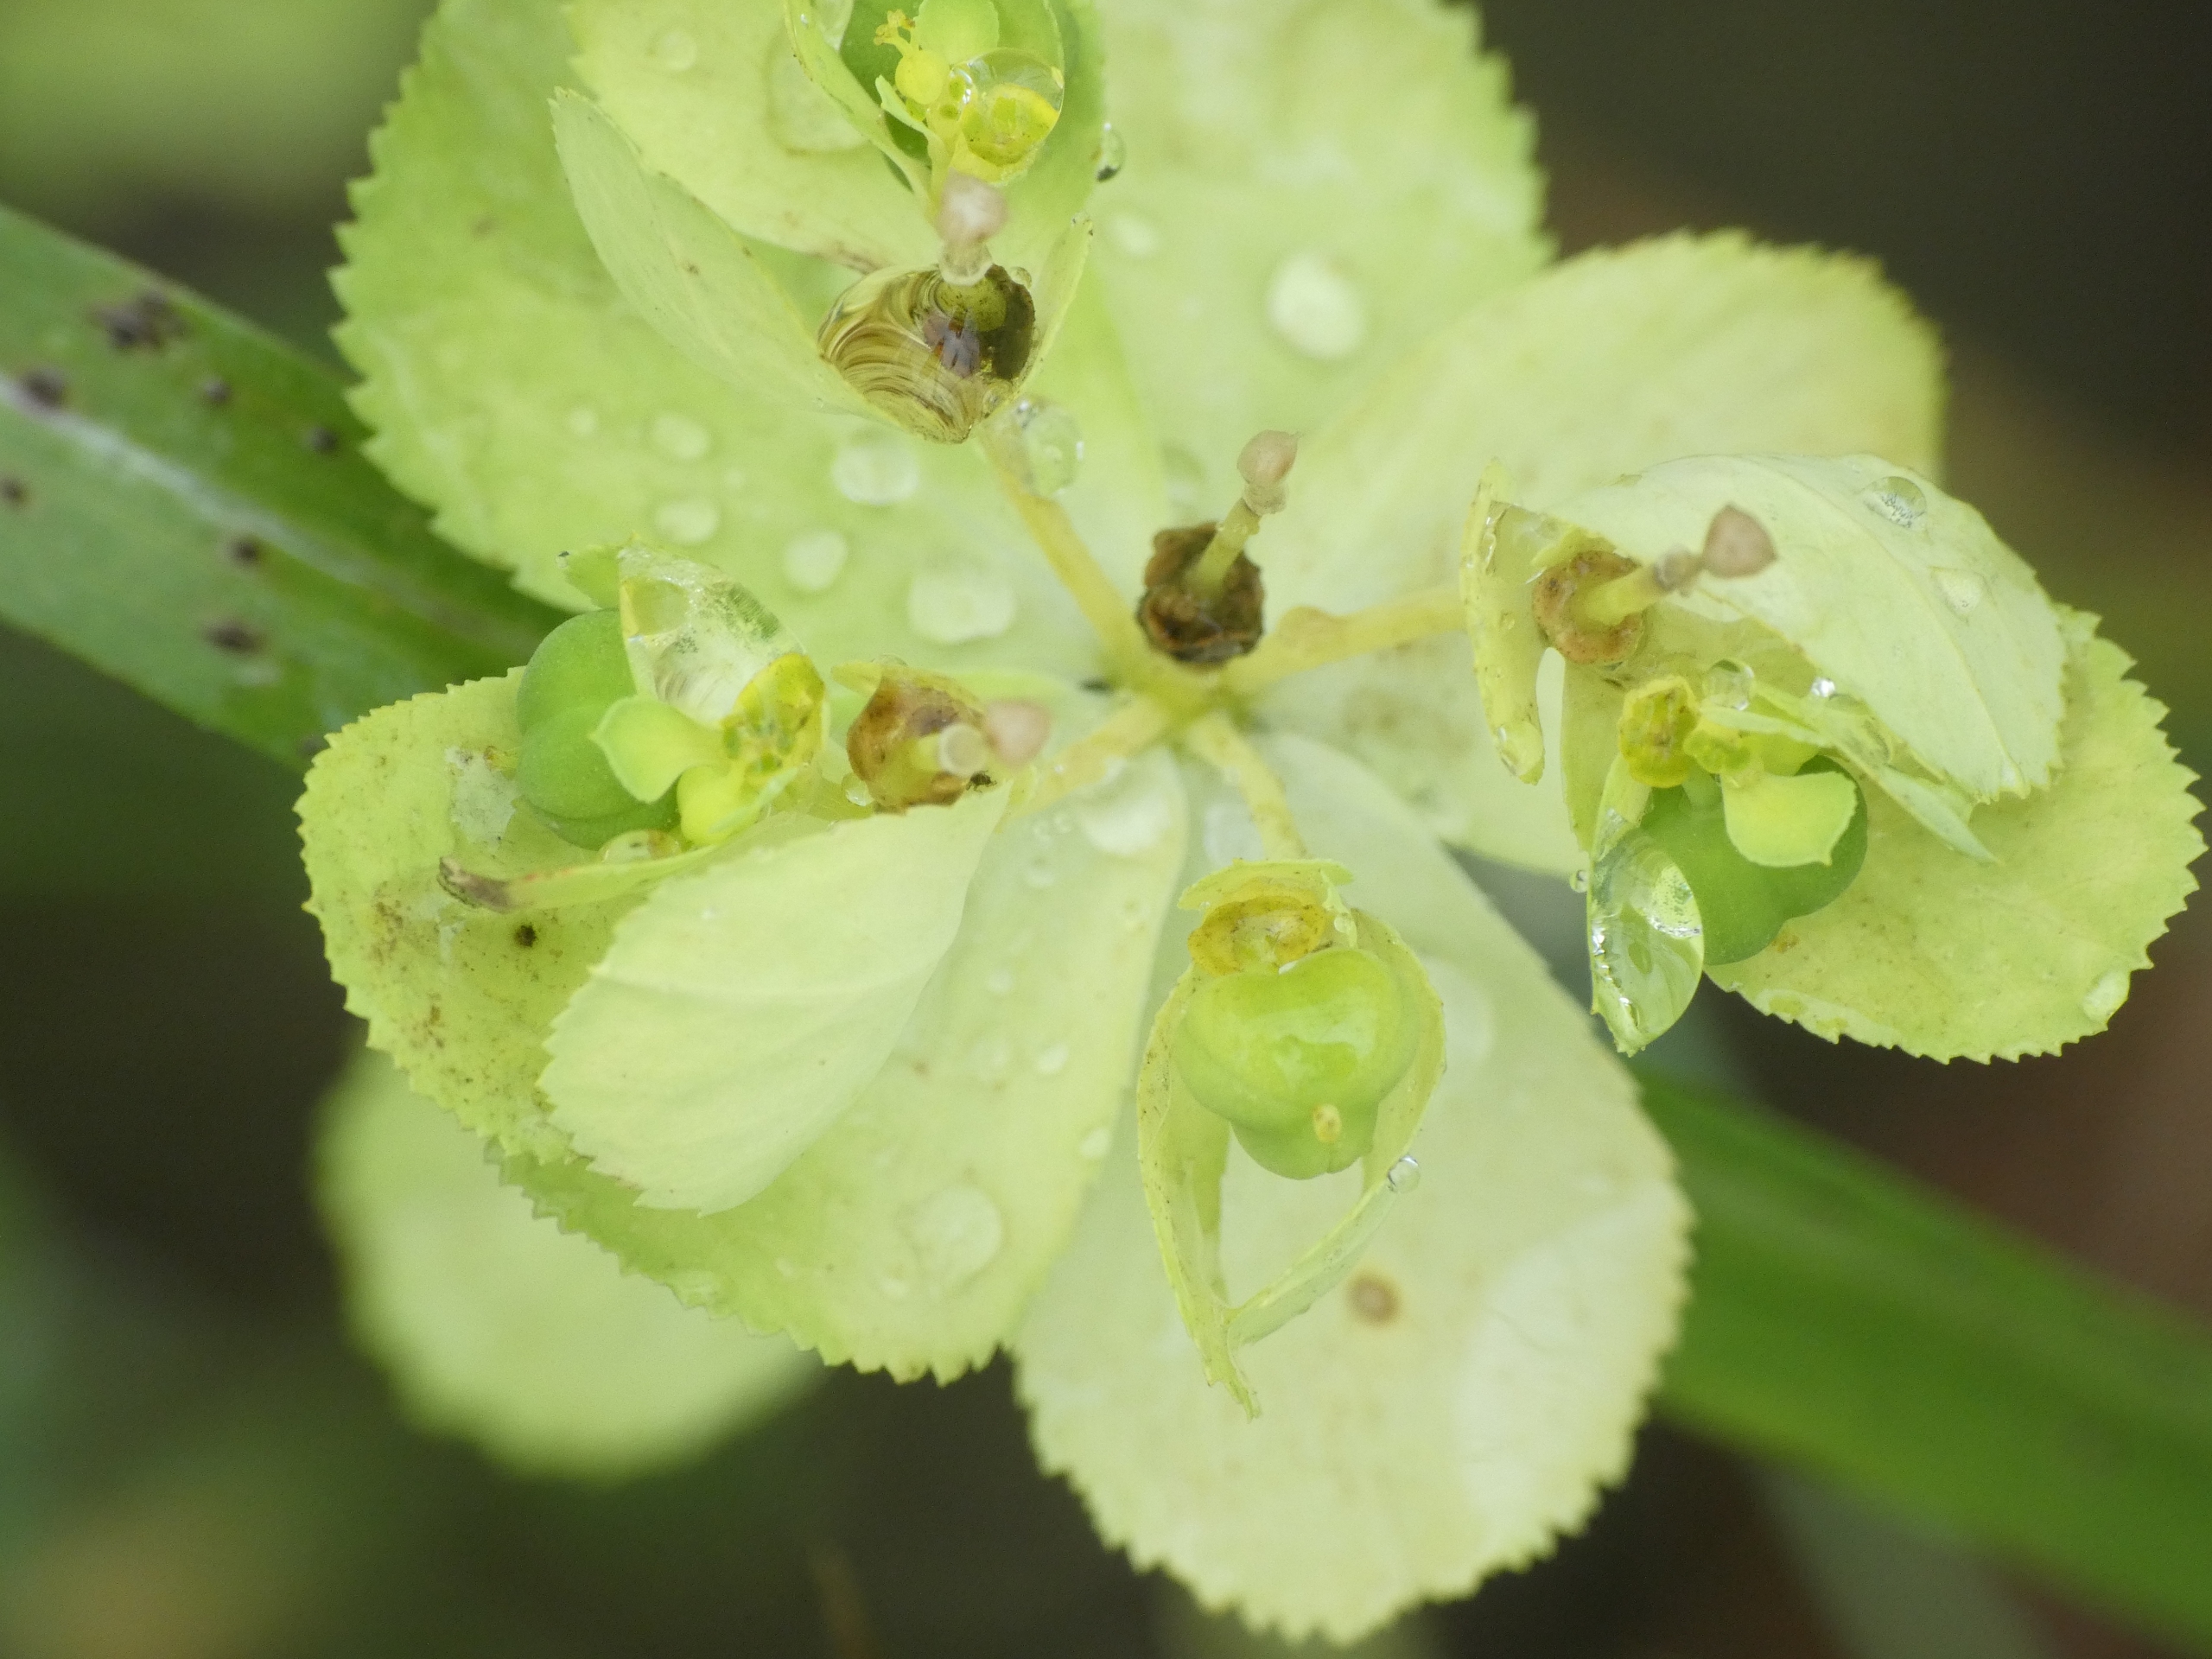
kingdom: Plantae
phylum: Tracheophyta
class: Magnoliopsida
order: Malpighiales
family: Euphorbiaceae
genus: Euphorbia
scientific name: Euphorbia helioscopia
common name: Skærm-vortemælk
